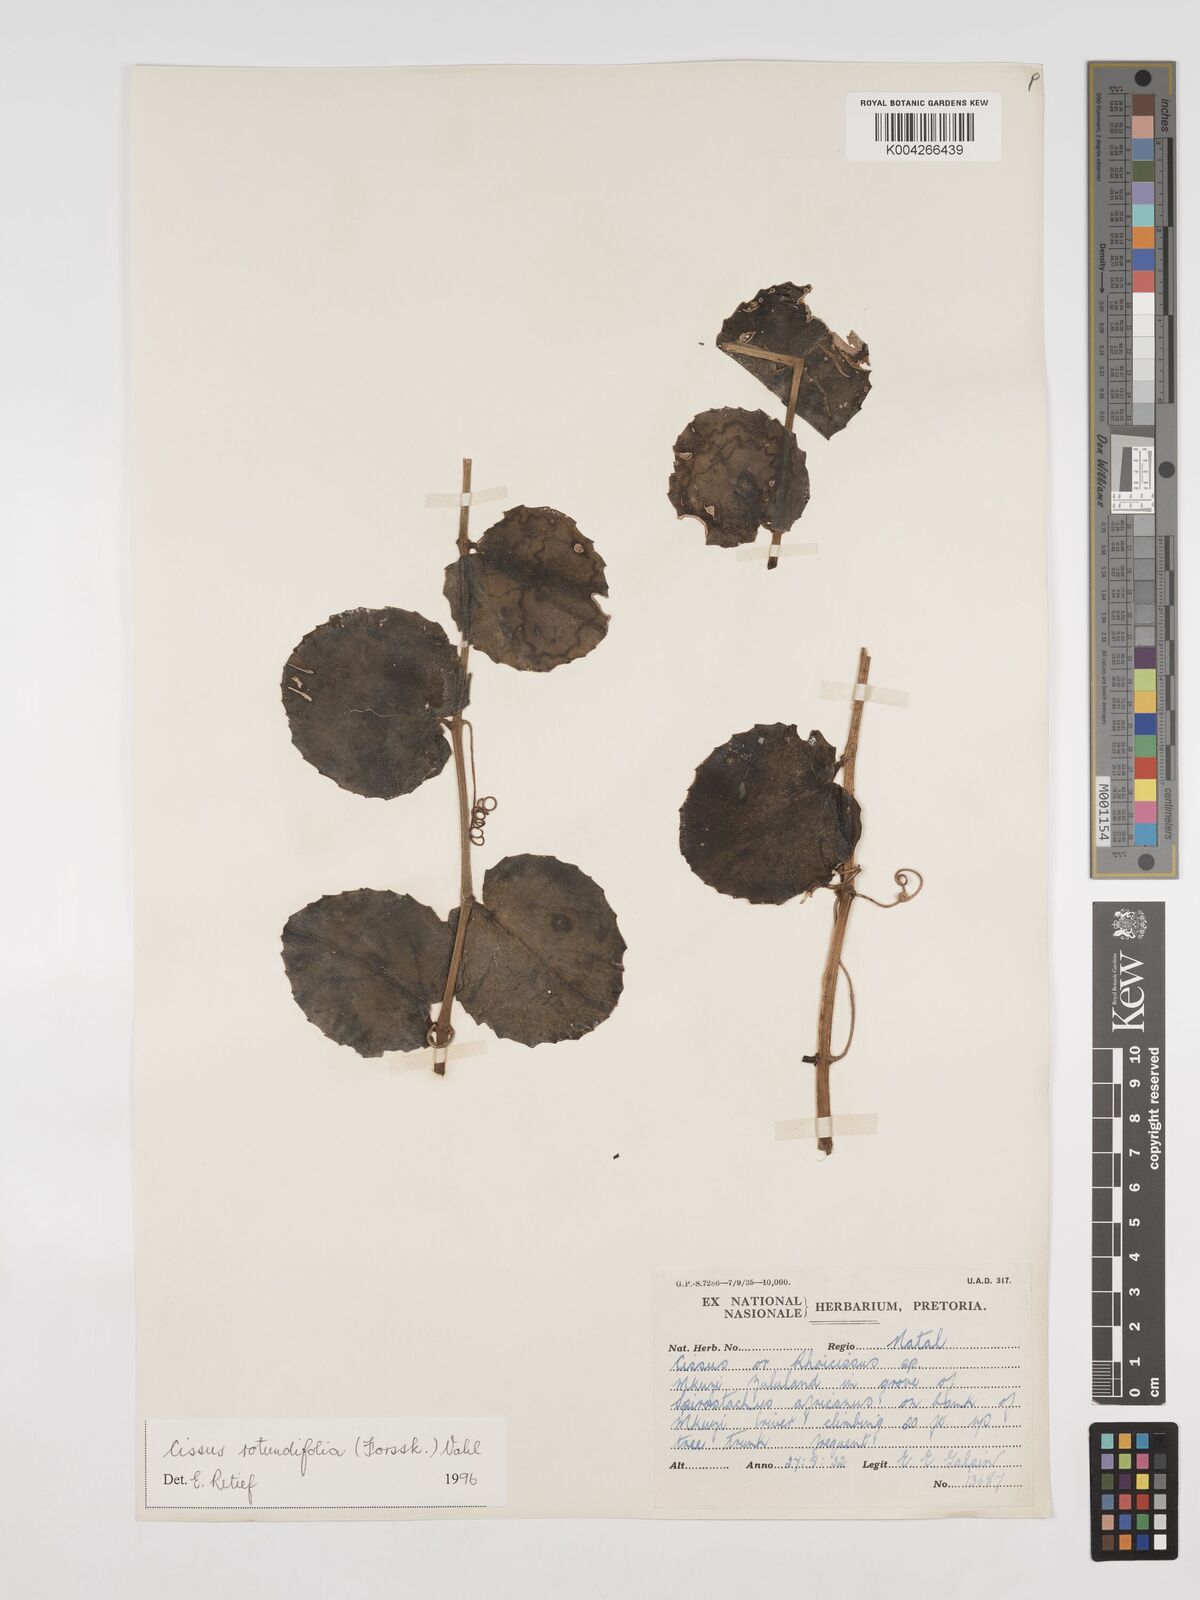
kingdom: Plantae
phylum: Tracheophyta
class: Magnoliopsida
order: Vitales
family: Vitaceae
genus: Cissus
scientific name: Cissus
